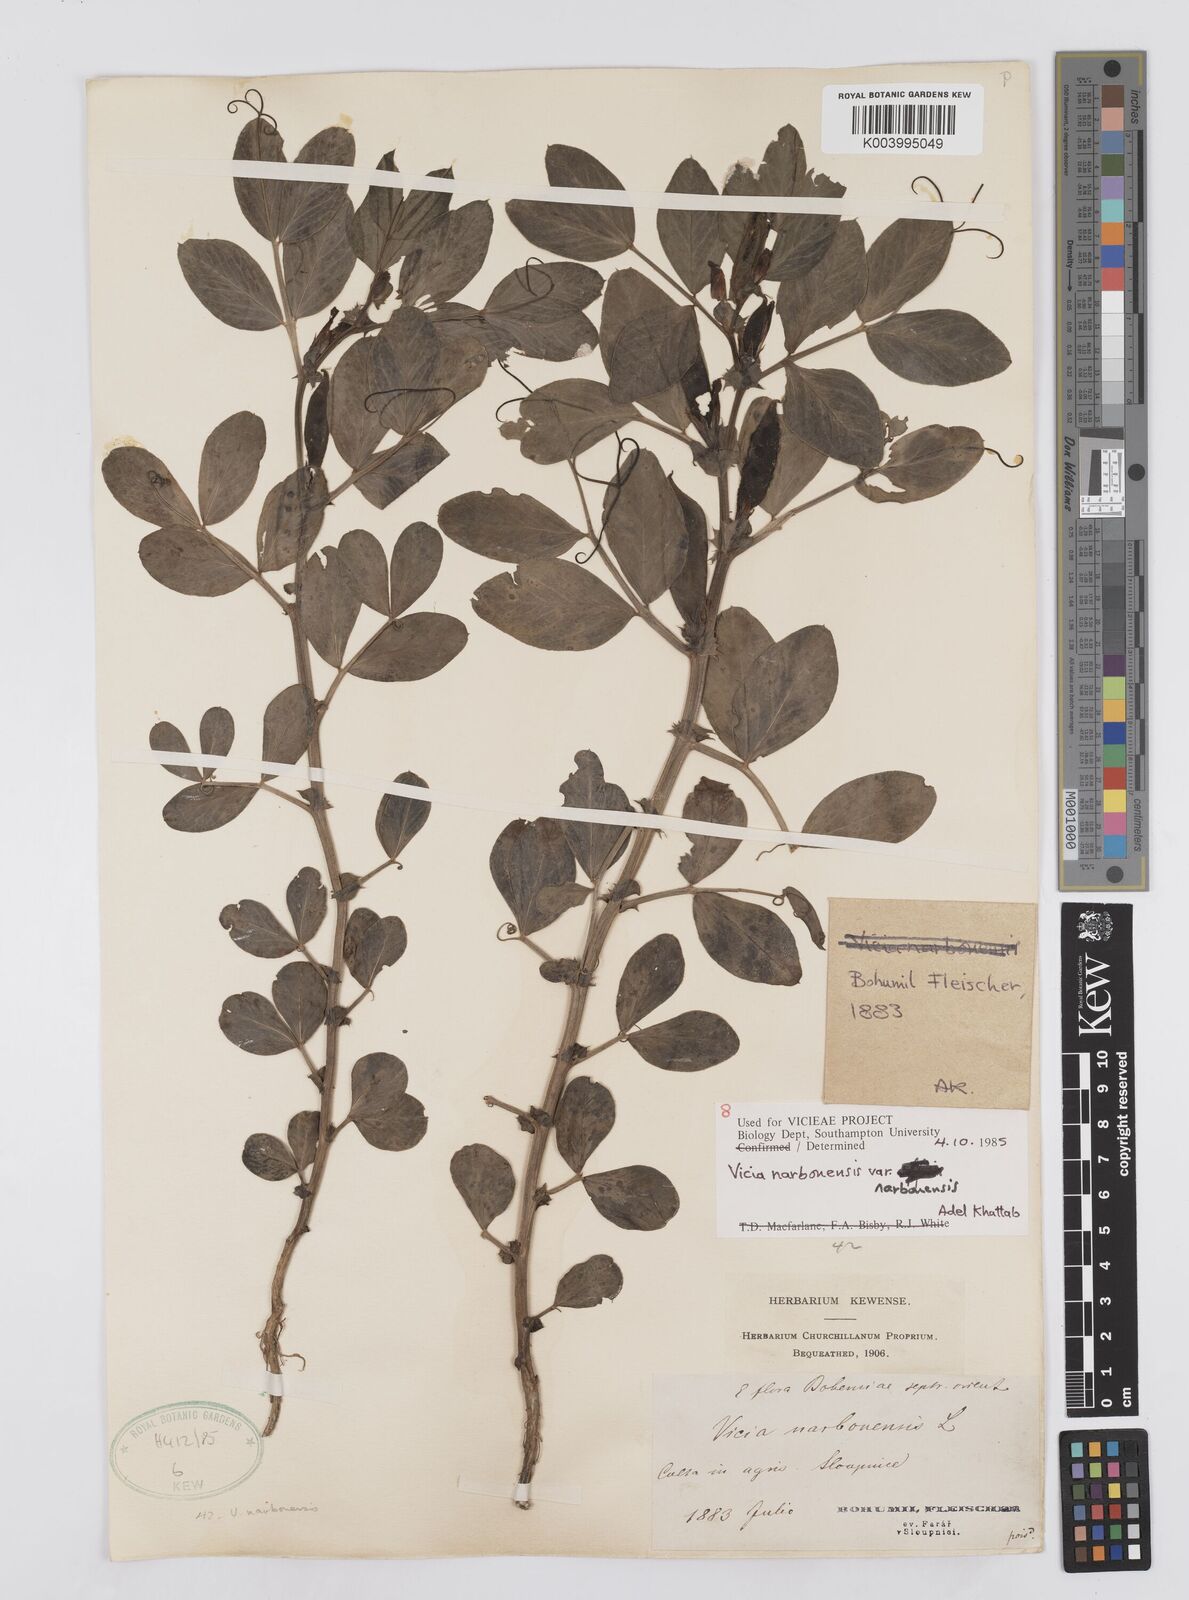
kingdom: Plantae
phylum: Tracheophyta
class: Magnoliopsida
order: Fabales
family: Fabaceae
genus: Vicia
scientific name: Vicia narbonensis
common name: Narbonne vetch
